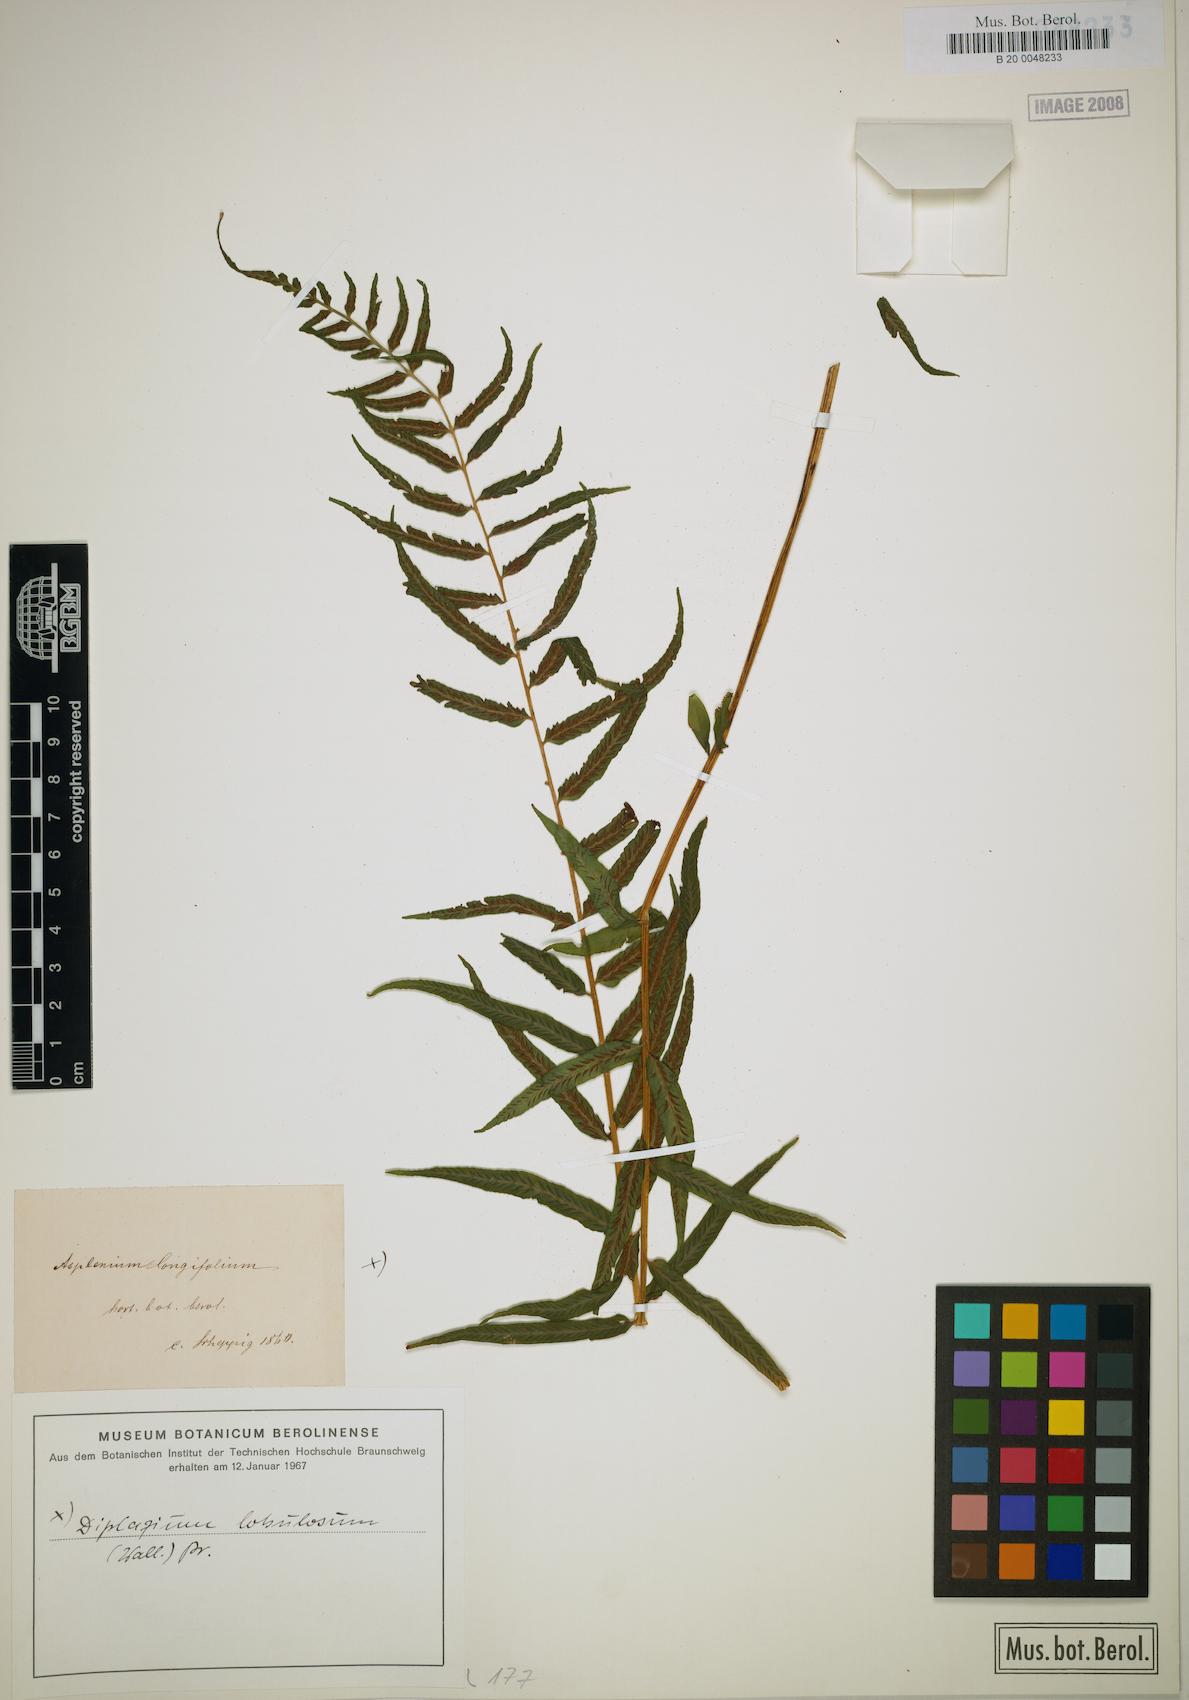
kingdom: Plantae
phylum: Tracheophyta
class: Polypodiopsida
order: Polypodiales
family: Athyriaceae
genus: Diplazium
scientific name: Diplazium longifolium
